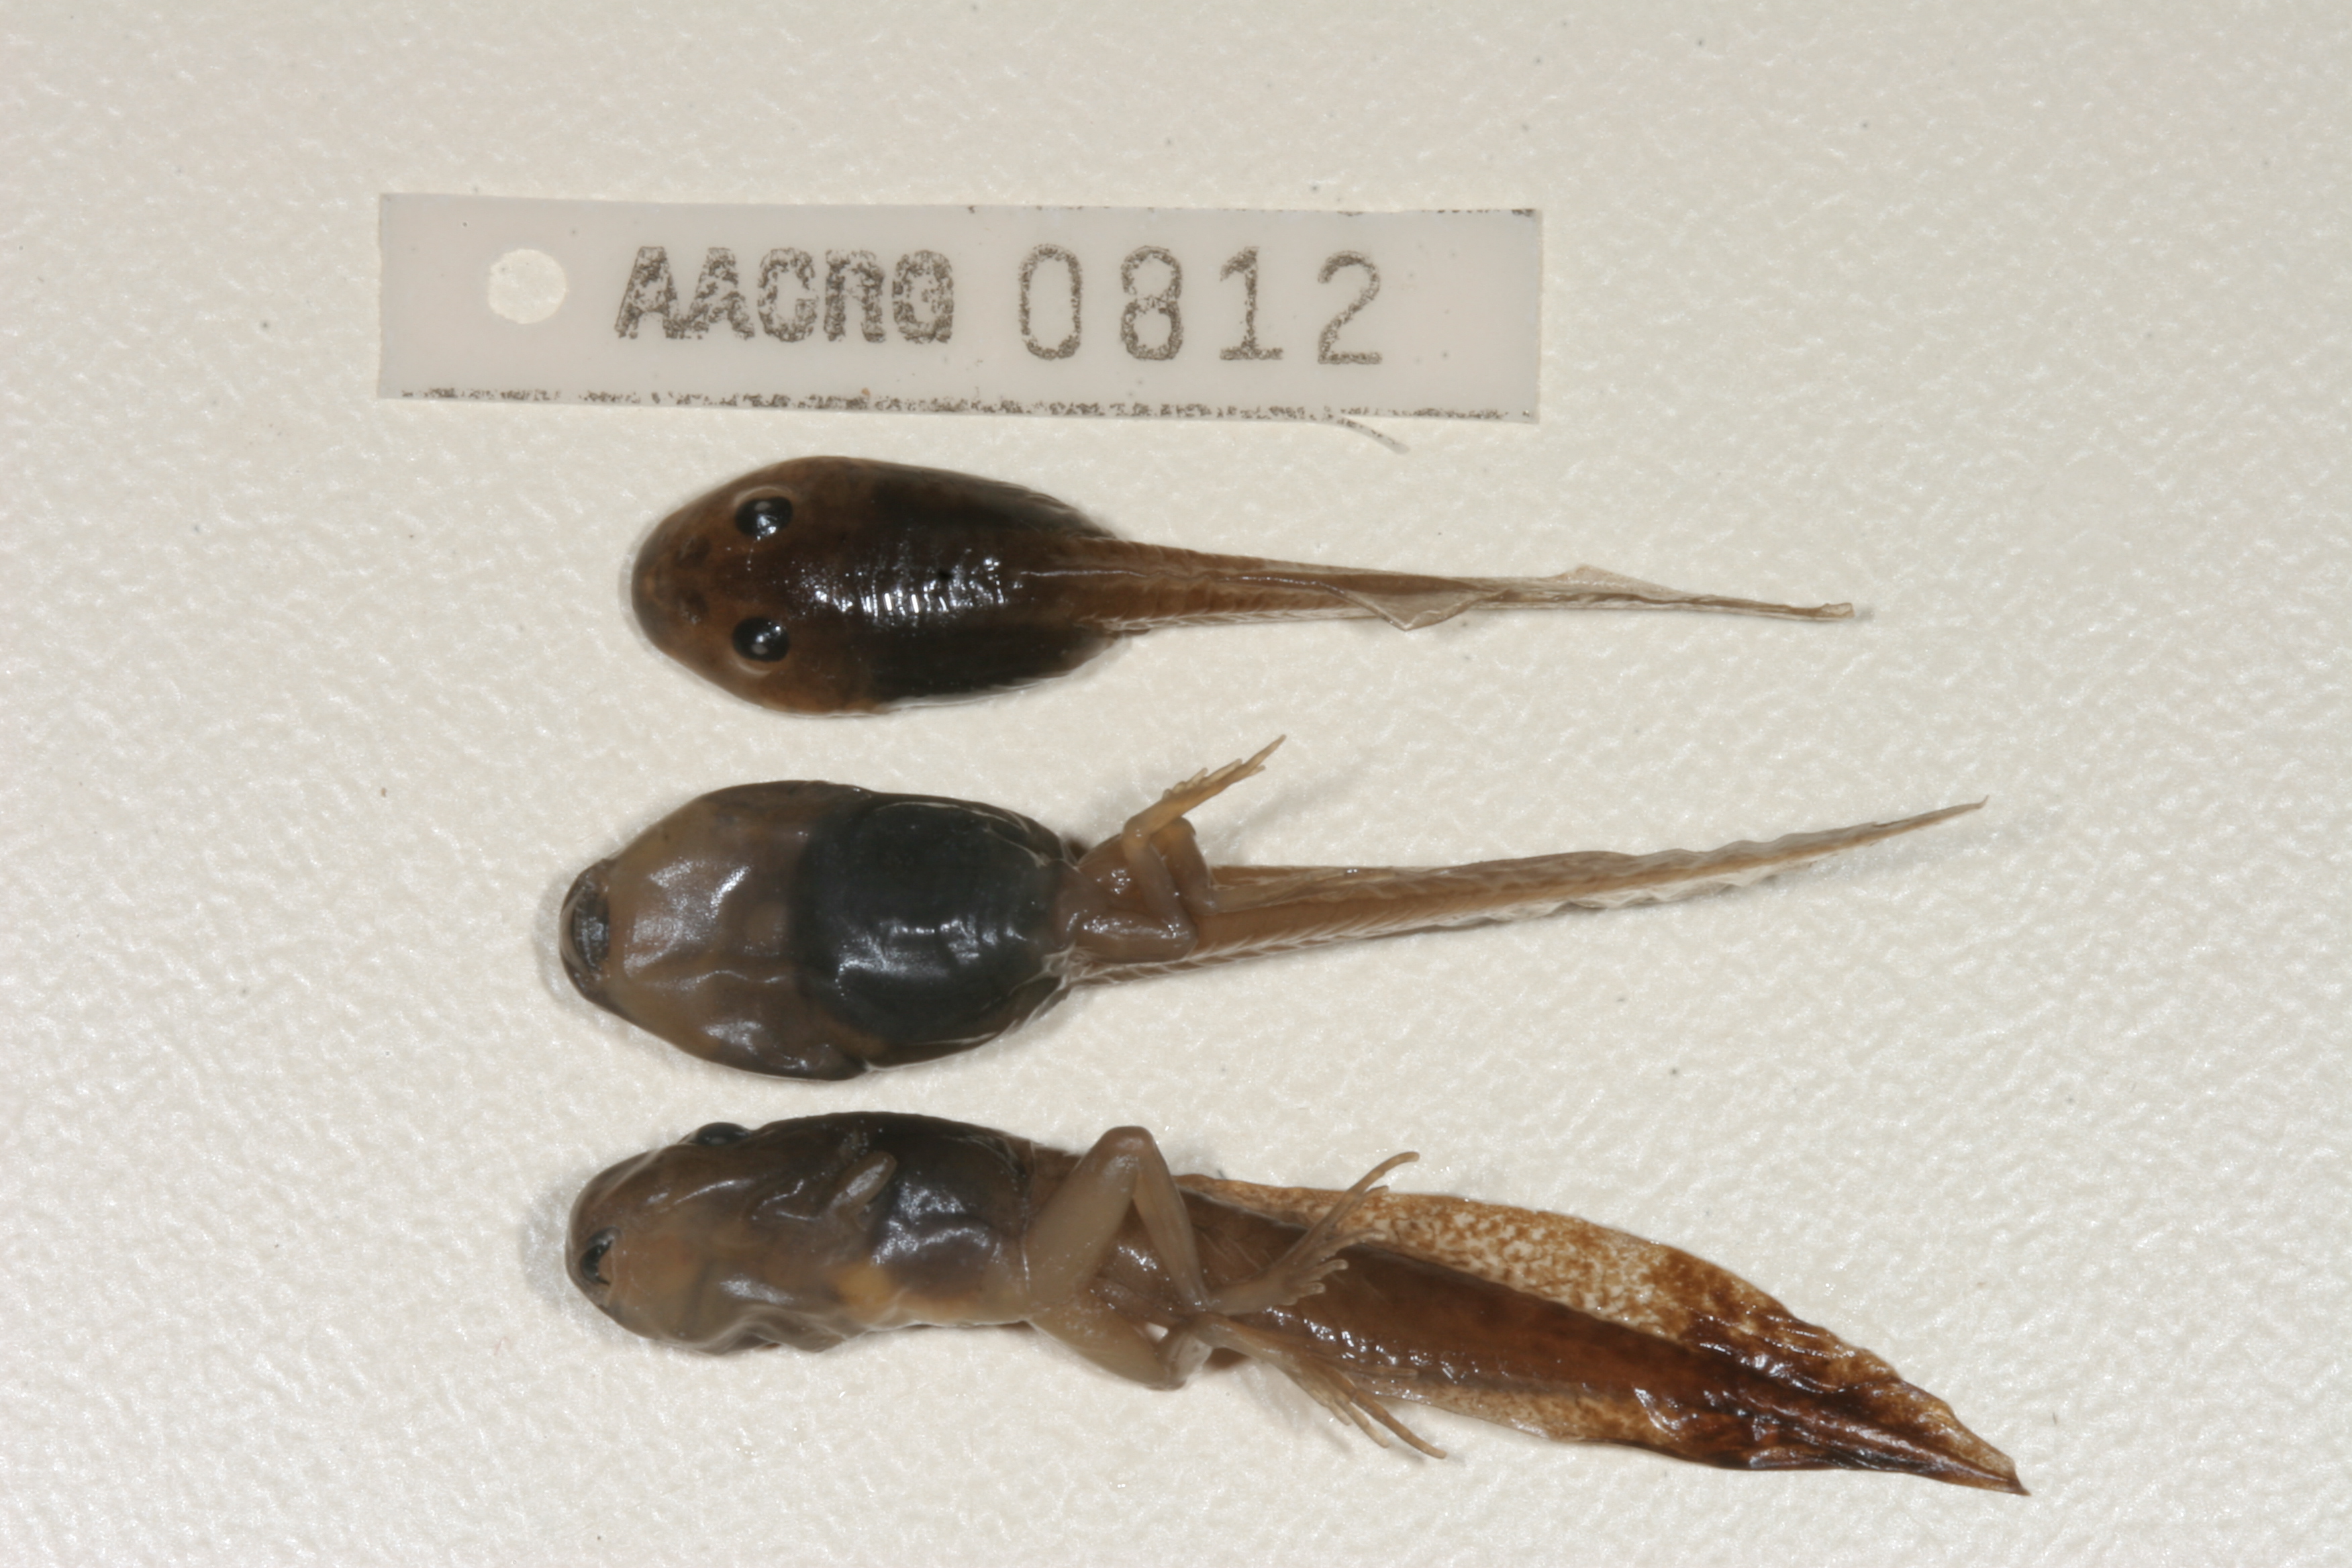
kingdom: Animalia
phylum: Chordata
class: Amphibia
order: Anura
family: Pyxicephalidae
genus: Strongylopus
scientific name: Strongylopus grayii
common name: Gray's stream frog
